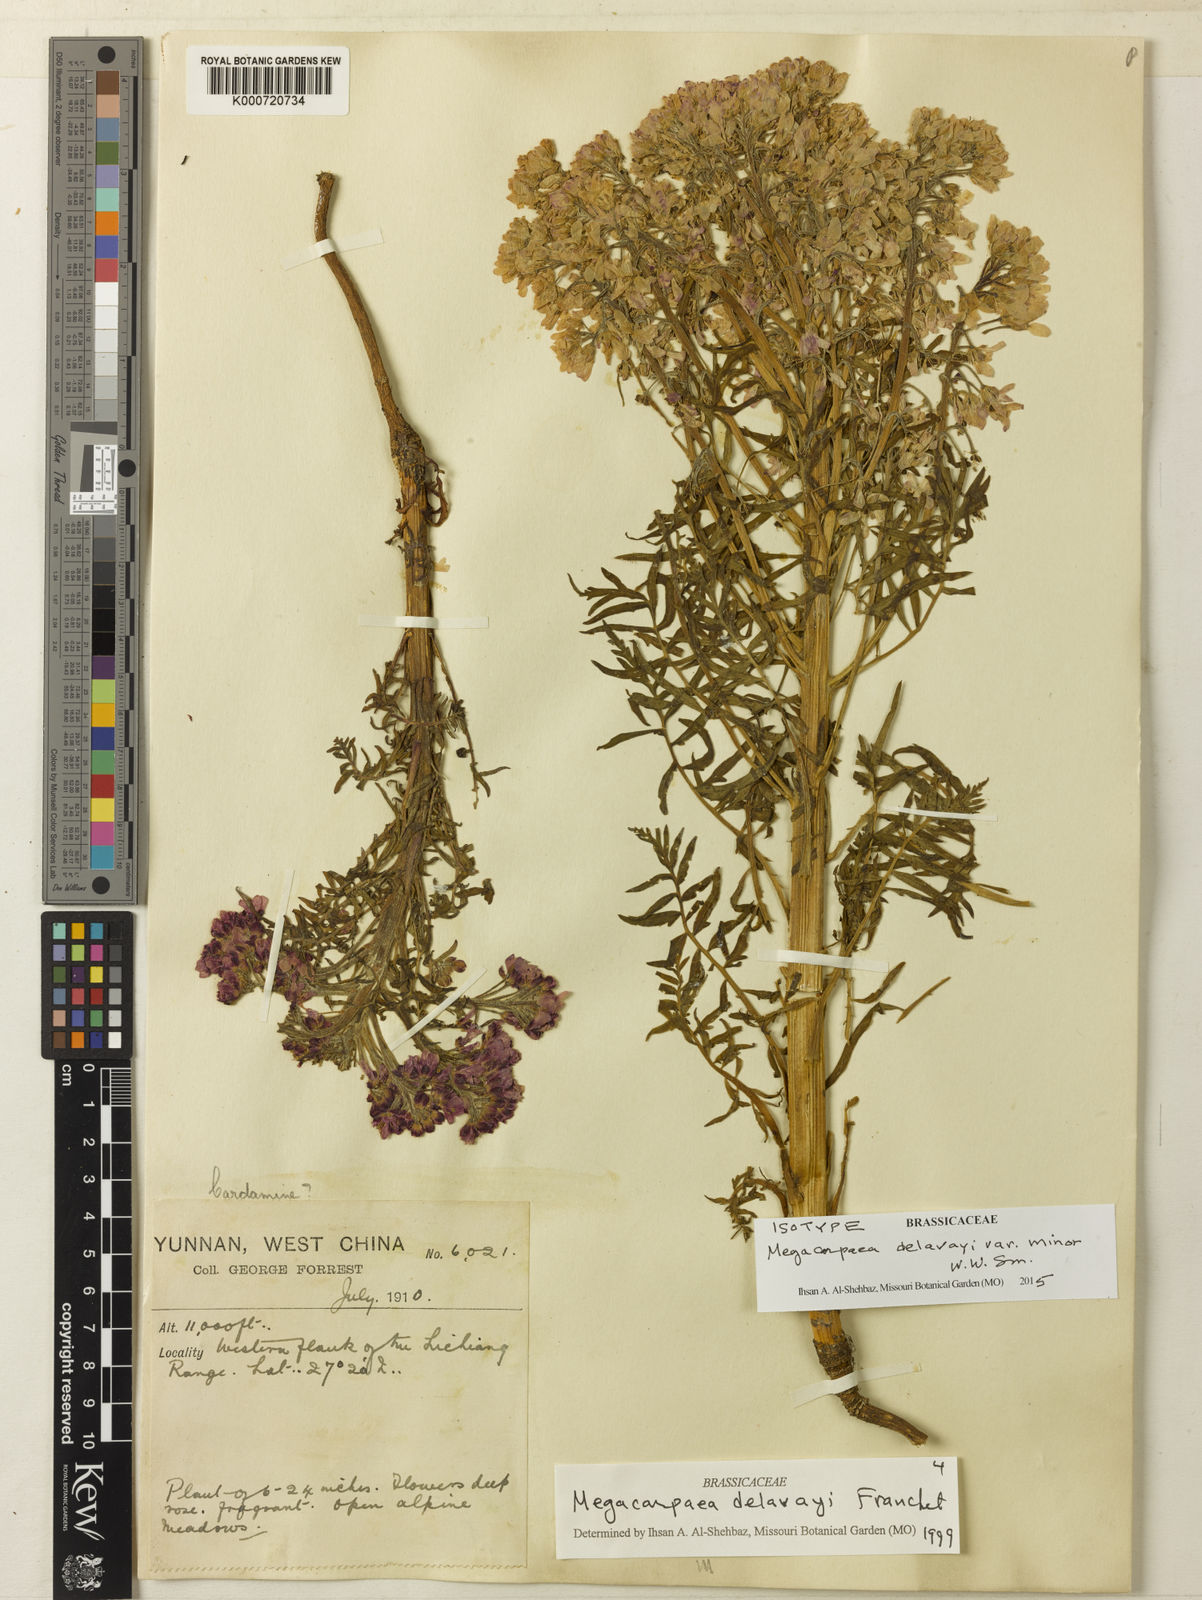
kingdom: Plantae
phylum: Tracheophyta
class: Magnoliopsida
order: Brassicales
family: Brassicaceae
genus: Megacarpaea
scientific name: Megacarpaea delavayi
